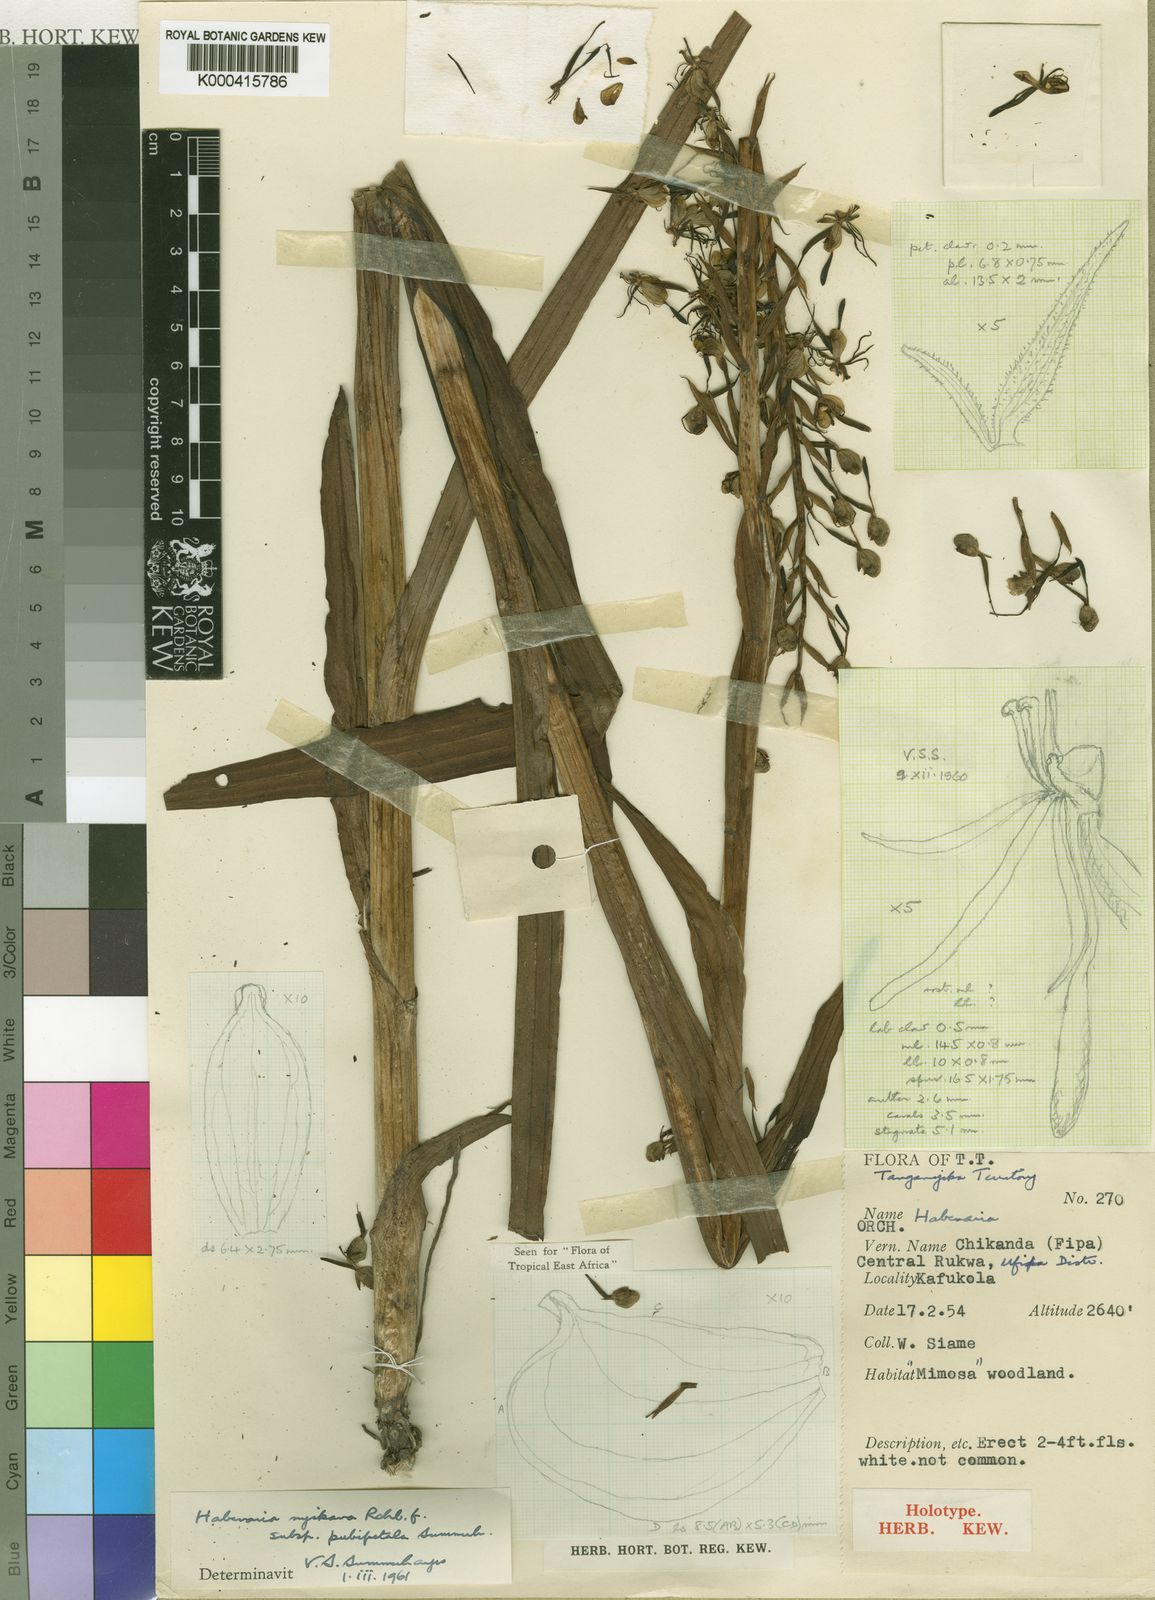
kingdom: Plantae
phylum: Tracheophyta
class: Liliopsida
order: Asparagales
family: Orchidaceae
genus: Habenaria
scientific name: Habenaria nyikana
